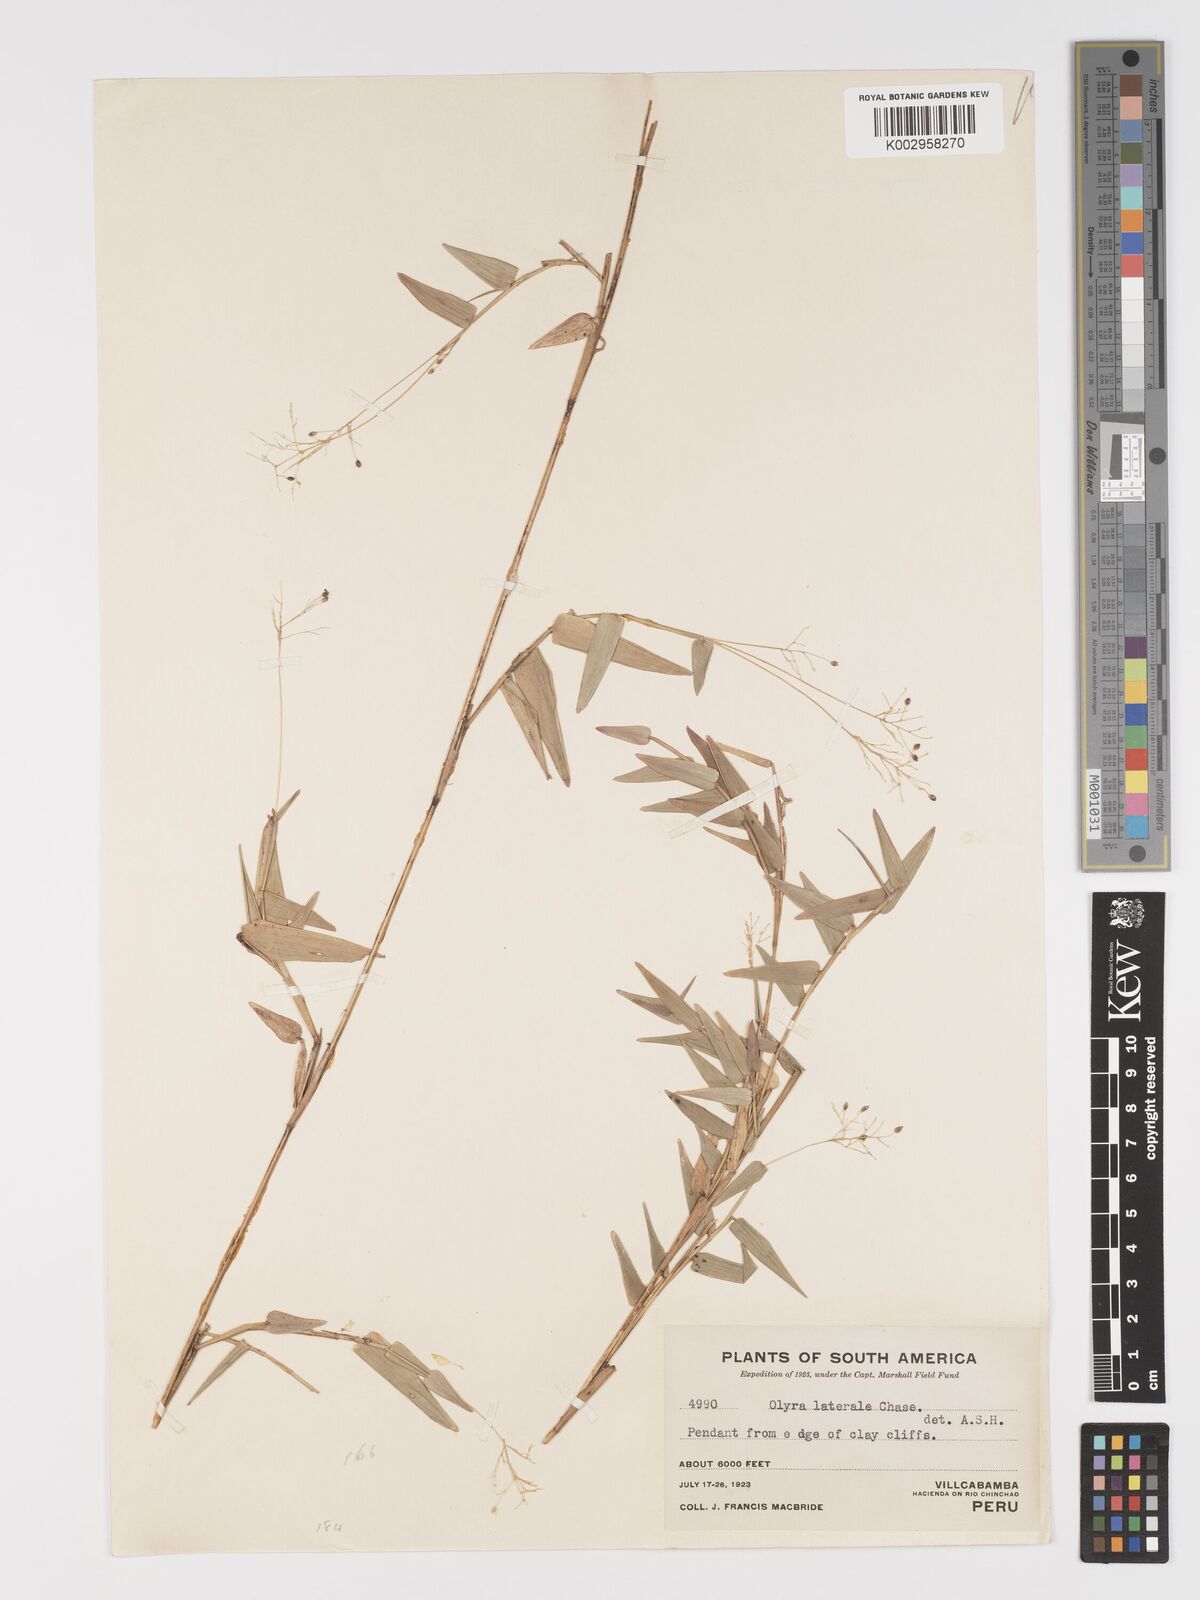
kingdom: Plantae
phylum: Tracheophyta
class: Liliopsida
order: Poales
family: Poaceae
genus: Parodiolyra
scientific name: Parodiolyra lateralis
